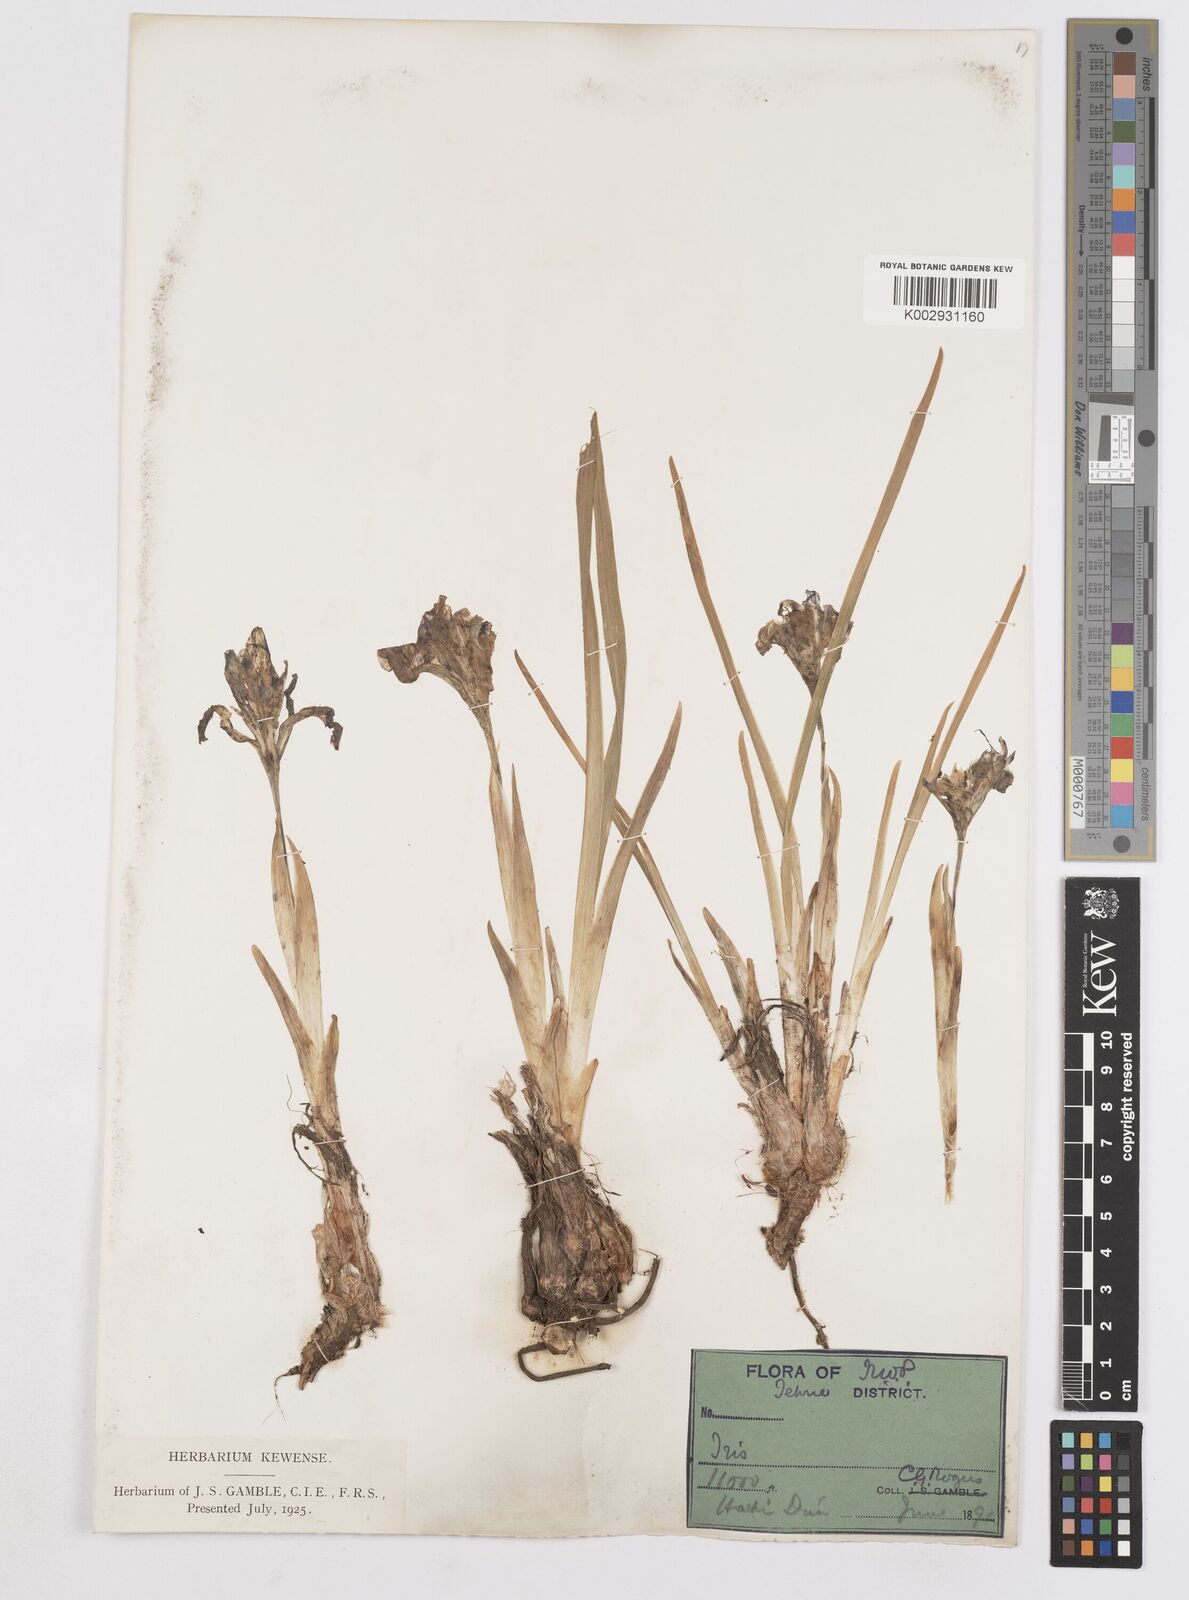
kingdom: Plantae
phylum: Tracheophyta
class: Liliopsida
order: Asparagales
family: Iridaceae
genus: Iris
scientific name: Iris kemaonensis
